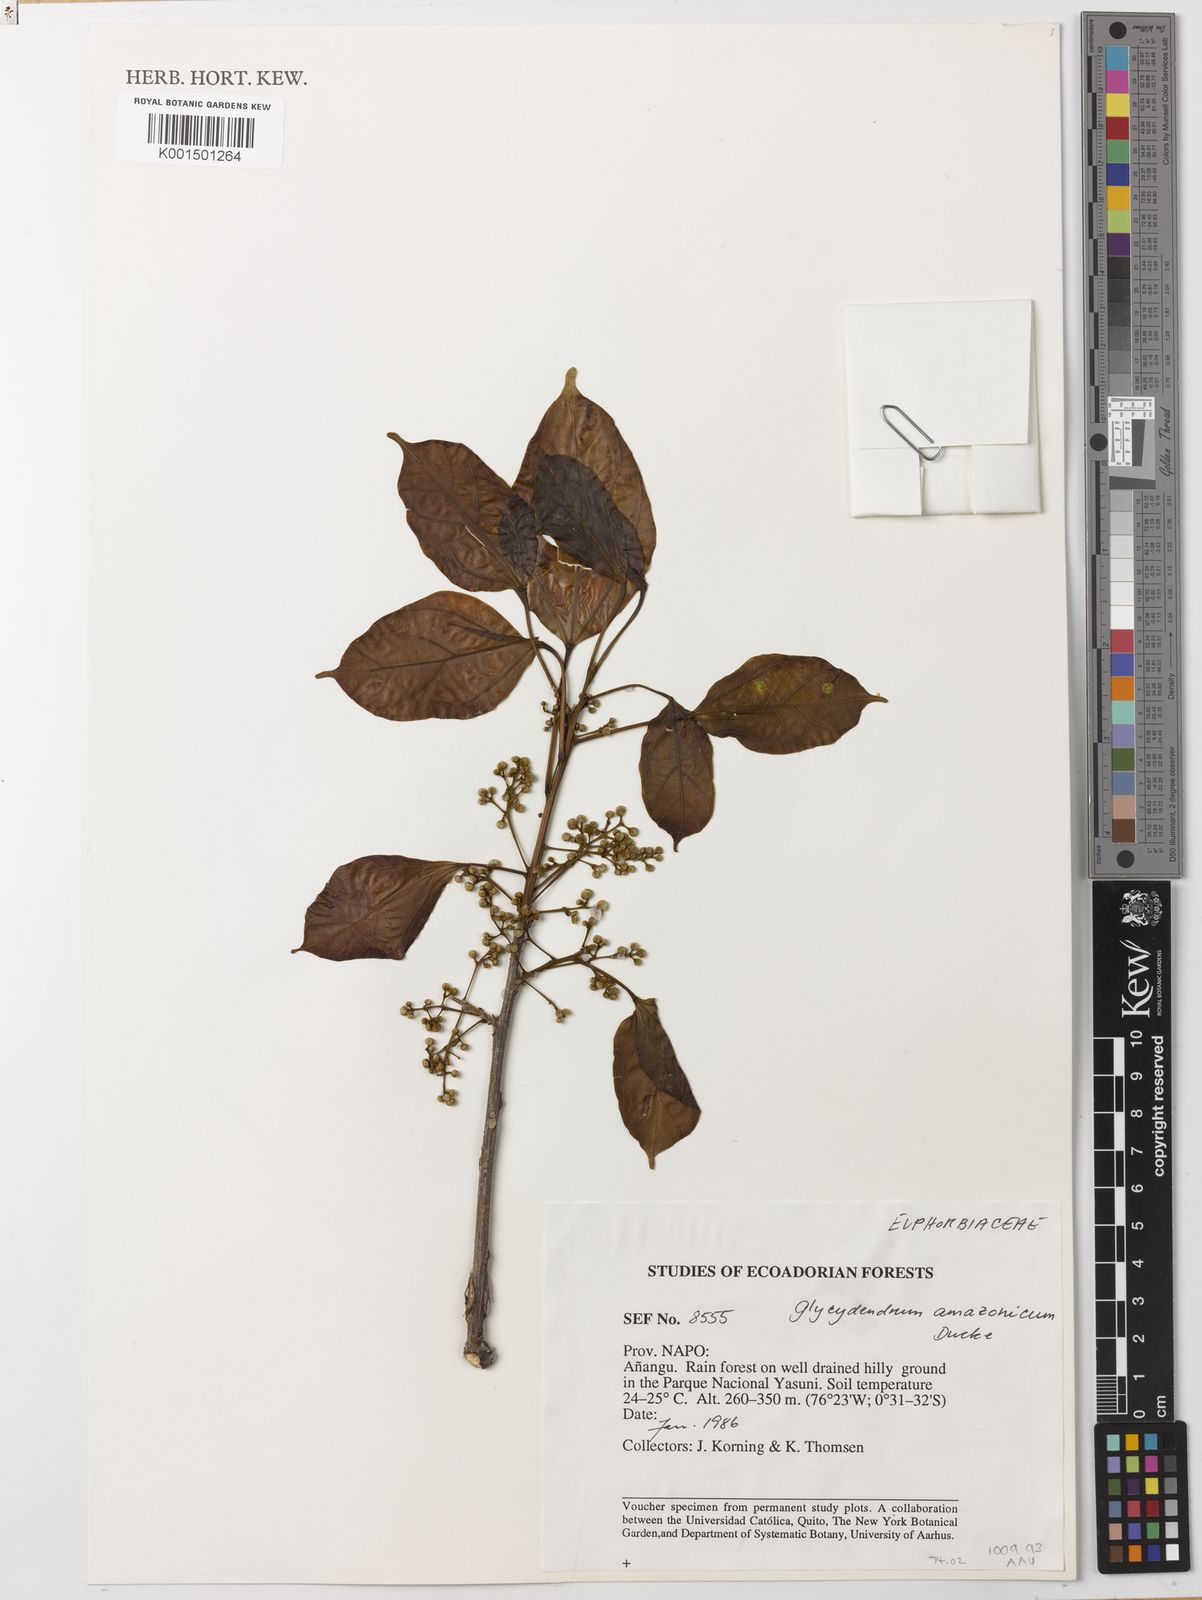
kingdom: Plantae
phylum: Tracheophyta
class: Magnoliopsida
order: Malpighiales
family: Euphorbiaceae
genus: Glycydendron
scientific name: Glycydendron amazonicum
